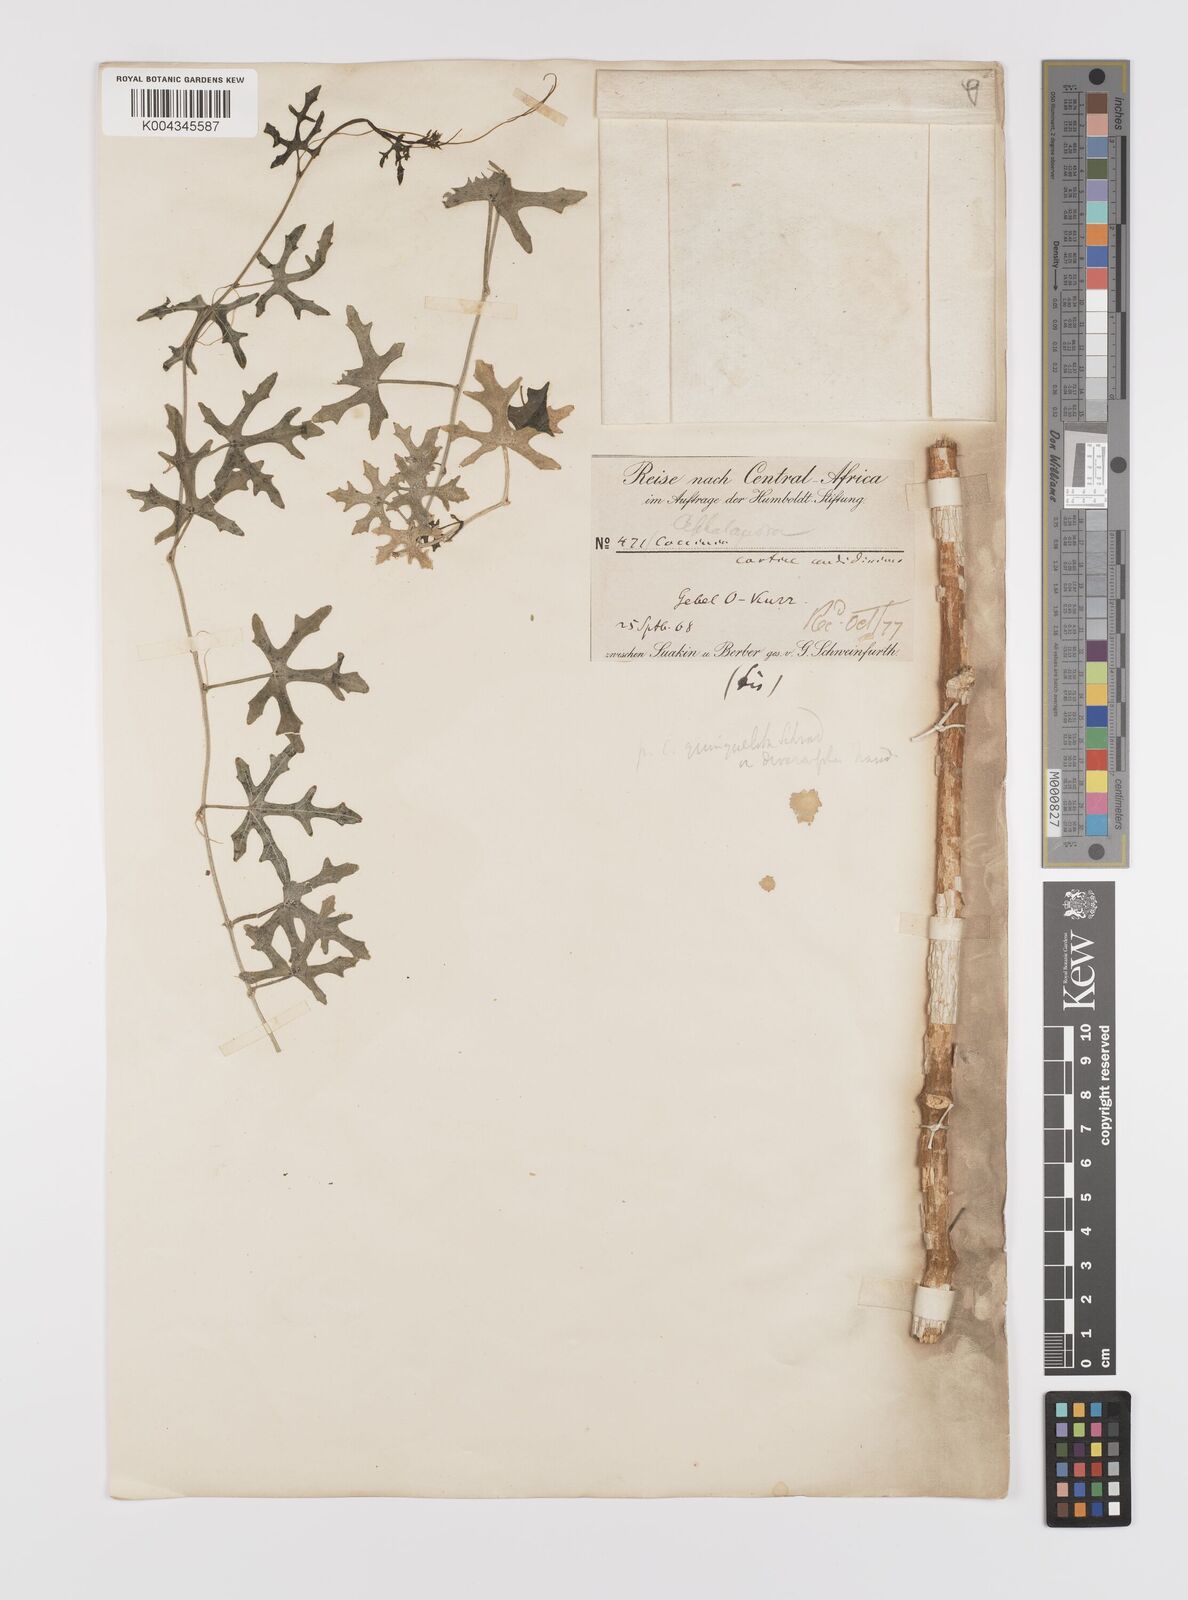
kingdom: Plantae
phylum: Tracheophyta
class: Magnoliopsida
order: Cucurbitales
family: Cucurbitaceae
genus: Coccinia
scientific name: Coccinia grandis
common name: Ivy gourd
